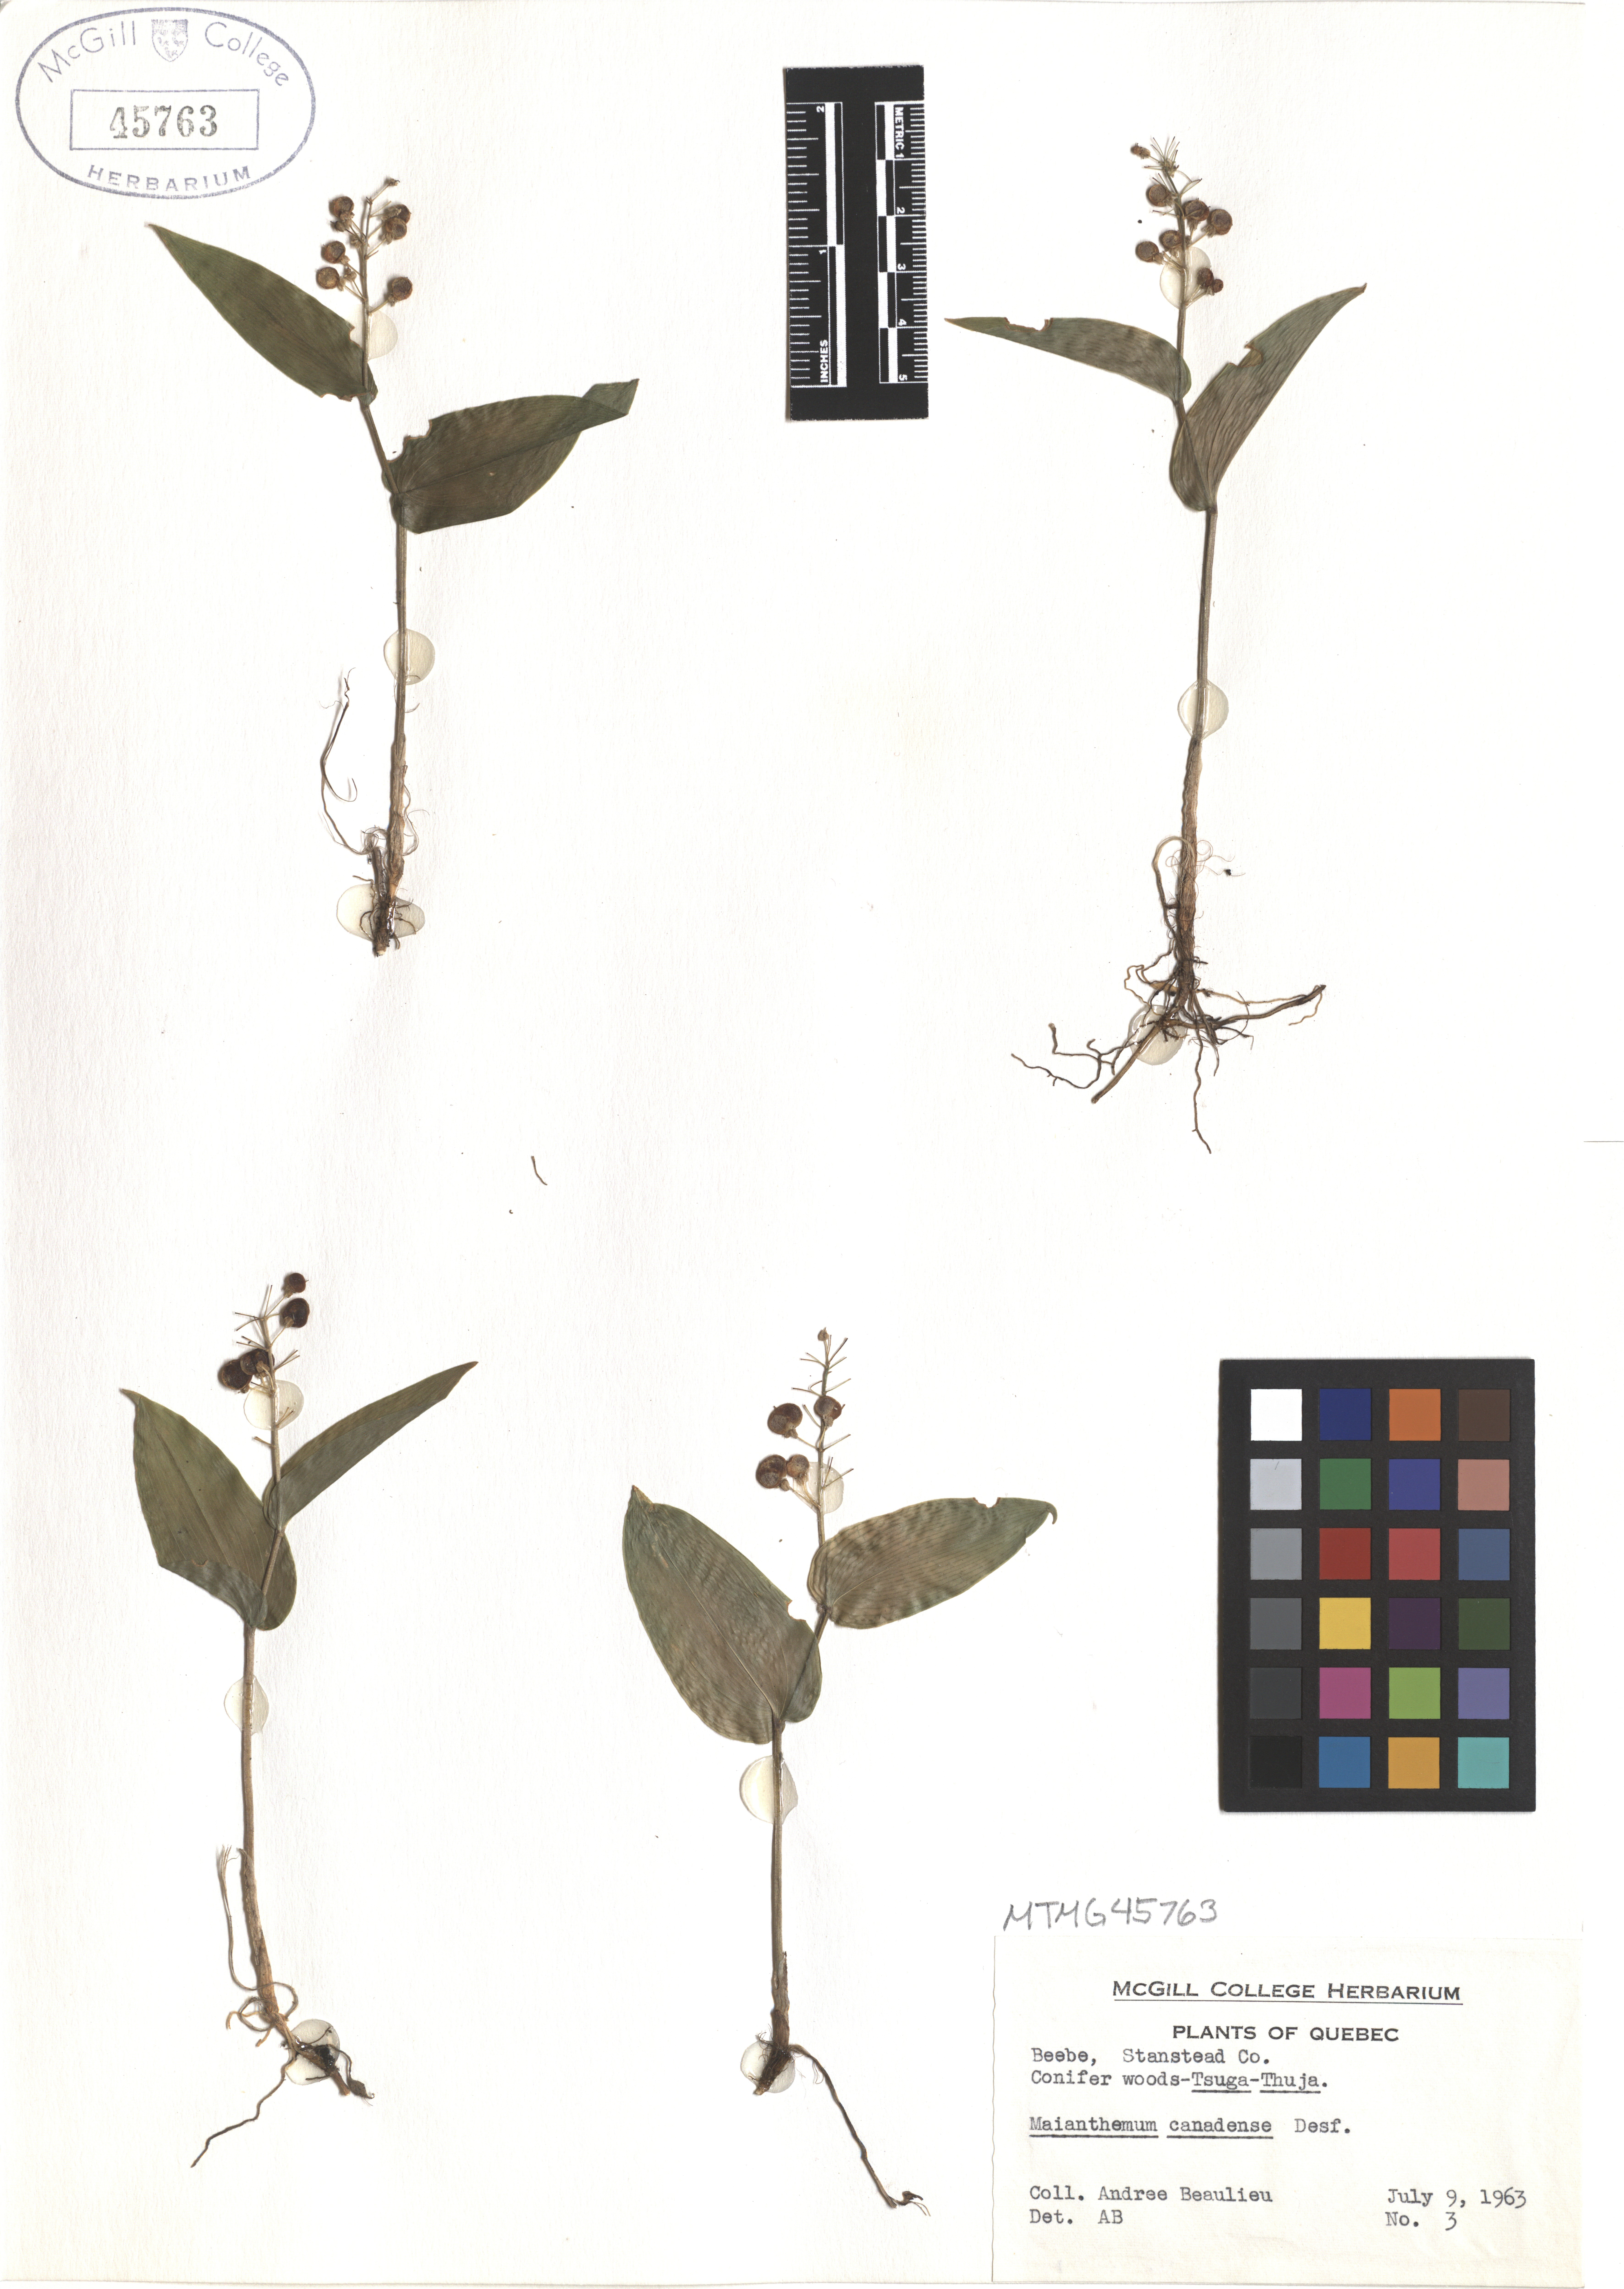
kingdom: Plantae
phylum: Tracheophyta
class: Liliopsida
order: Asparagales
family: Asparagaceae
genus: Maianthemum
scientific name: Maianthemum canadense
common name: False lily-of-the-valley
